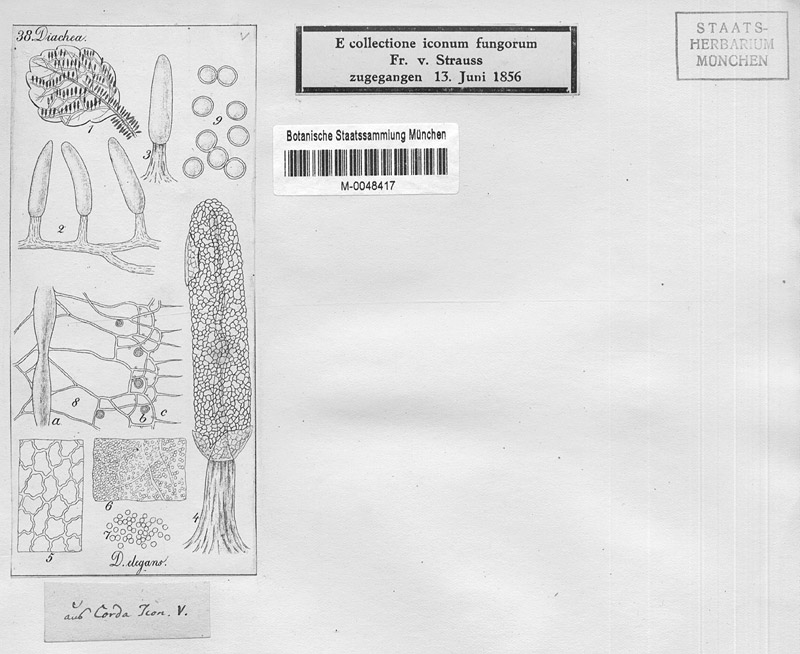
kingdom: Protozoa
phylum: Mycetozoa
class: Myxomycetes
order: Physarales
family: Didymiaceae
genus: Diachea
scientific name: Diachea leucopodia
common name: White-footed slime
